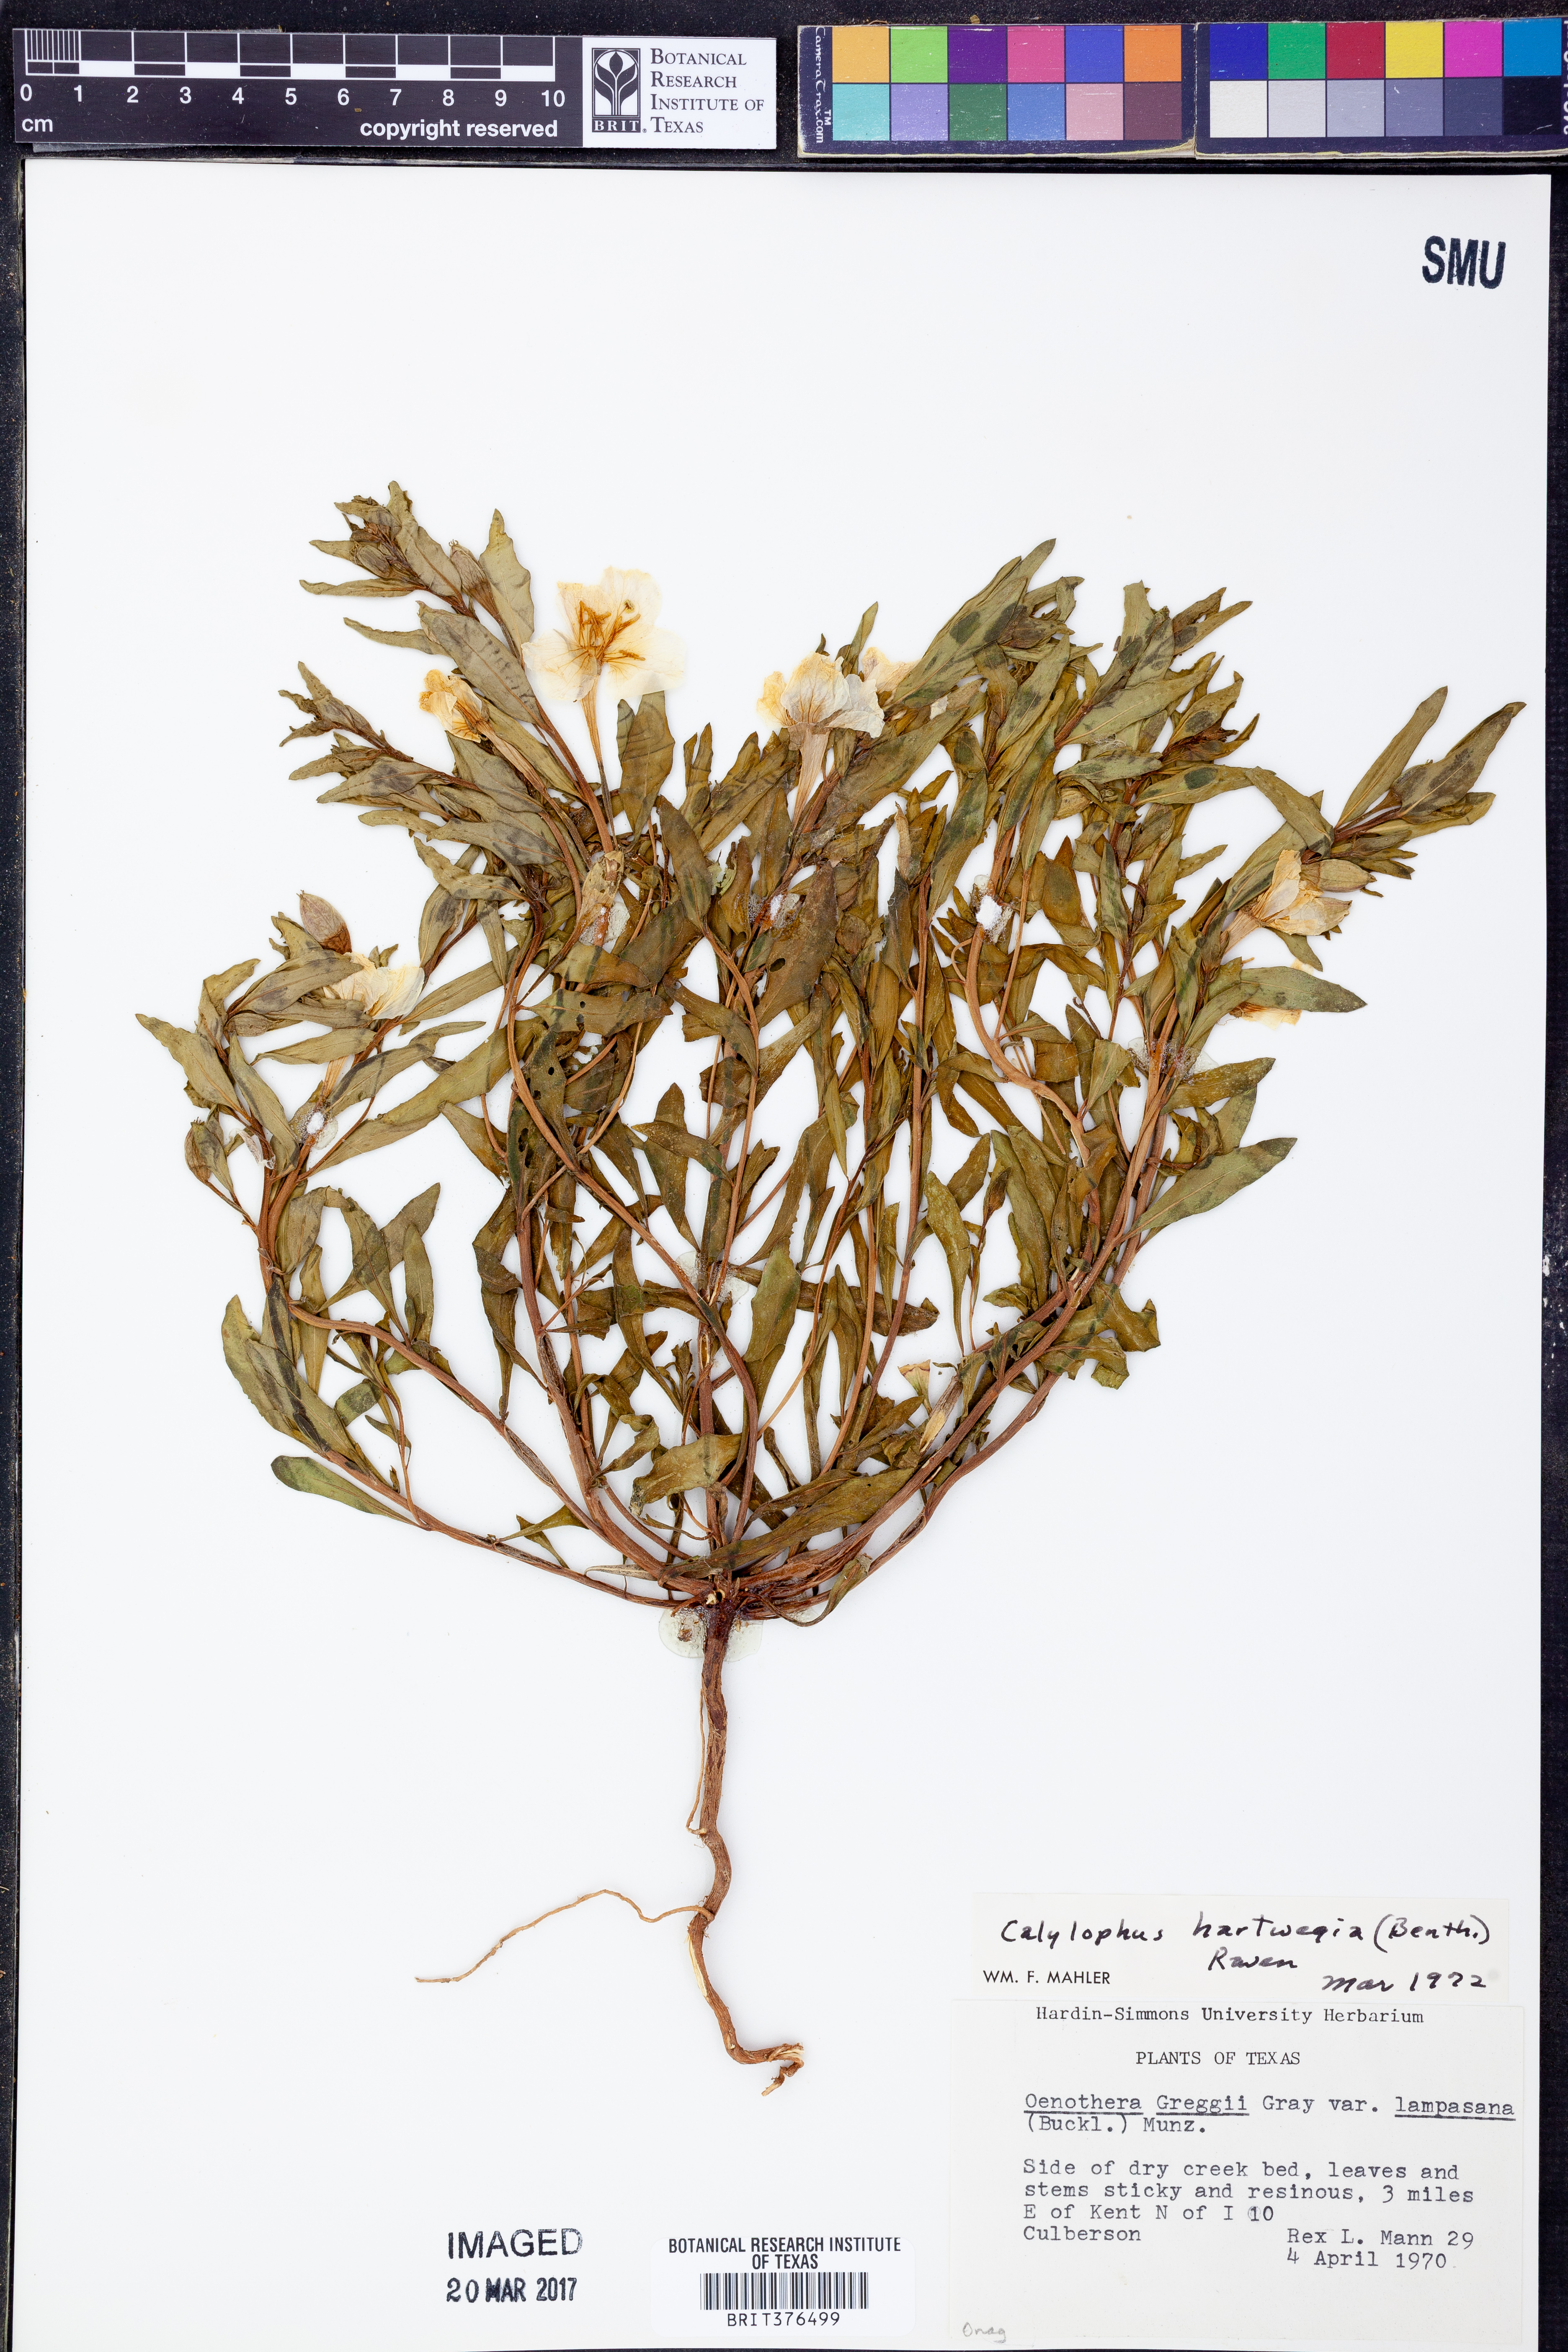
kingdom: Plantae
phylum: Tracheophyta
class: Magnoliopsida
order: Myrtales
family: Onagraceae
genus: Oenothera
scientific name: Oenothera hartwegii
